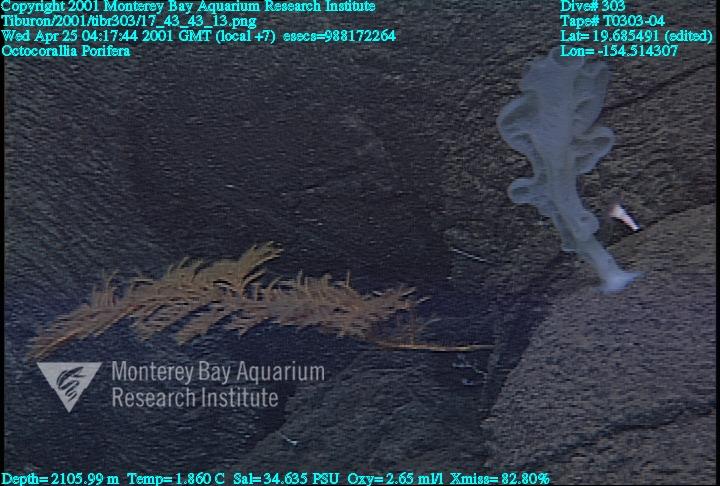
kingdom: Animalia
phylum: Porifera
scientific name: Porifera
